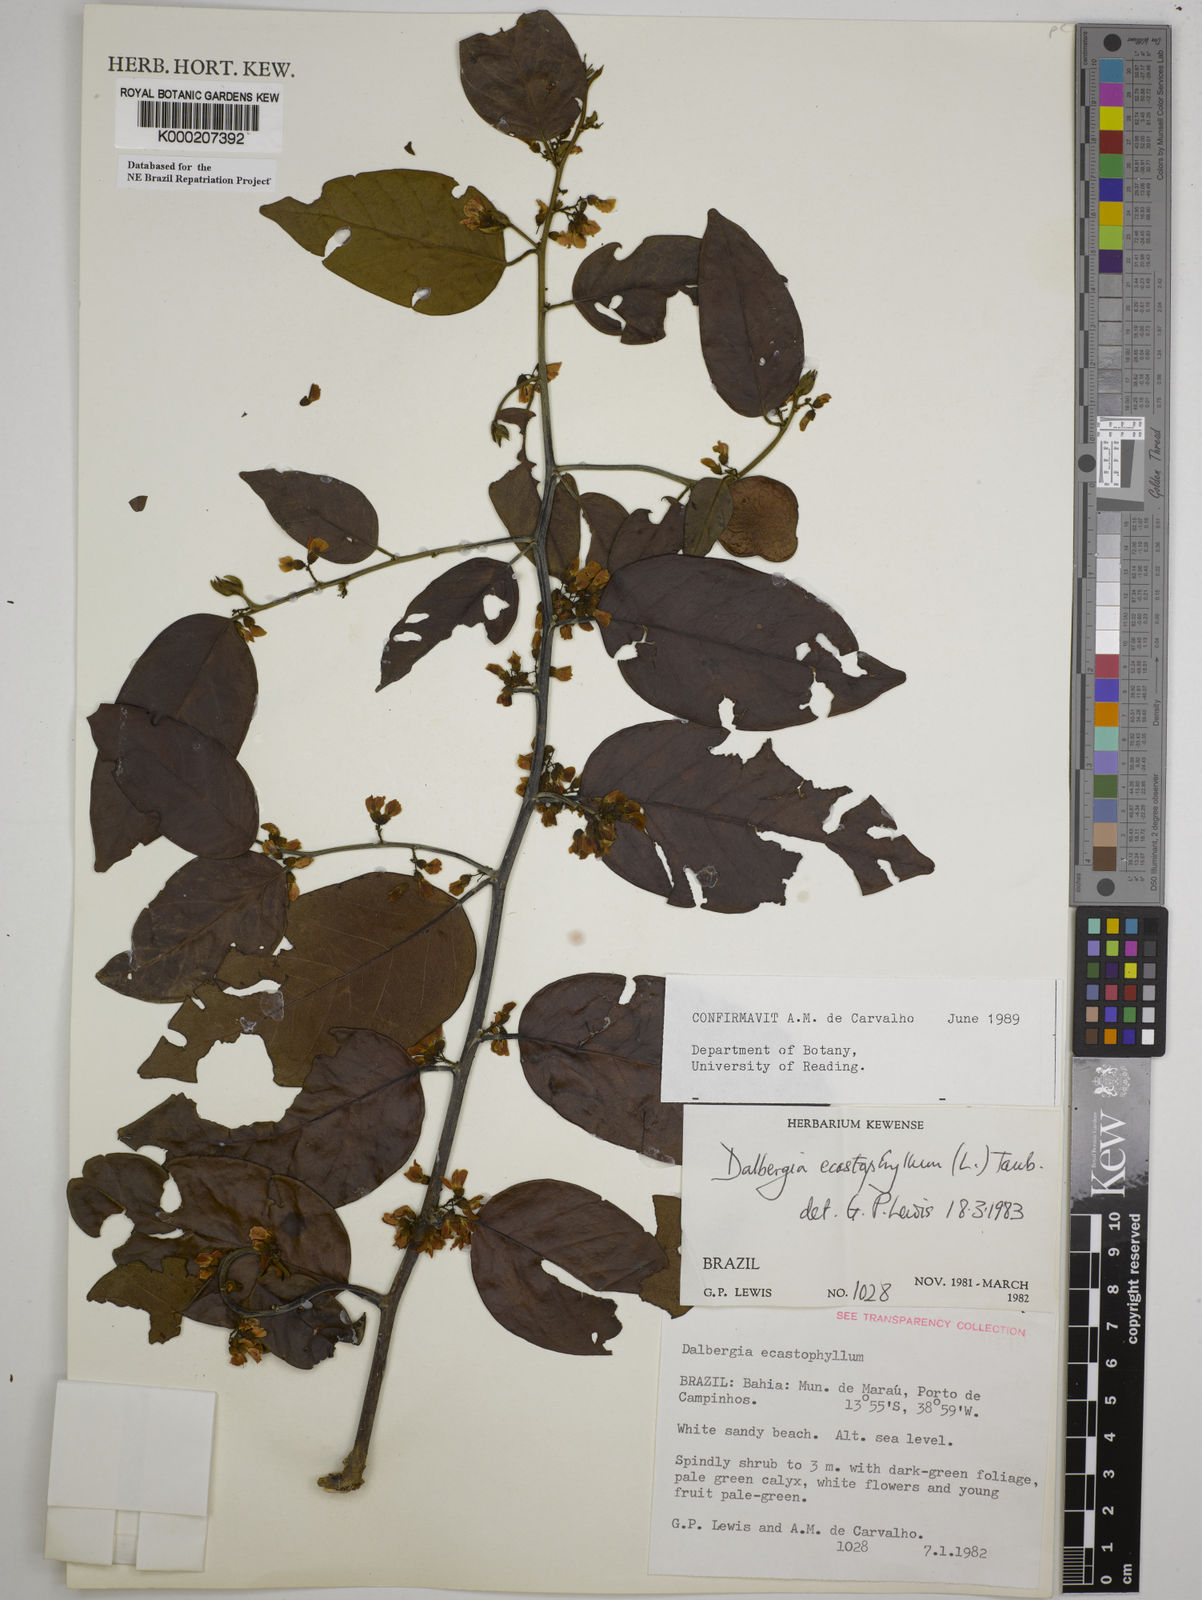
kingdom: Plantae
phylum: Tracheophyta
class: Magnoliopsida
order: Fabales
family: Fabaceae
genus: Dalbergia
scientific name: Dalbergia
